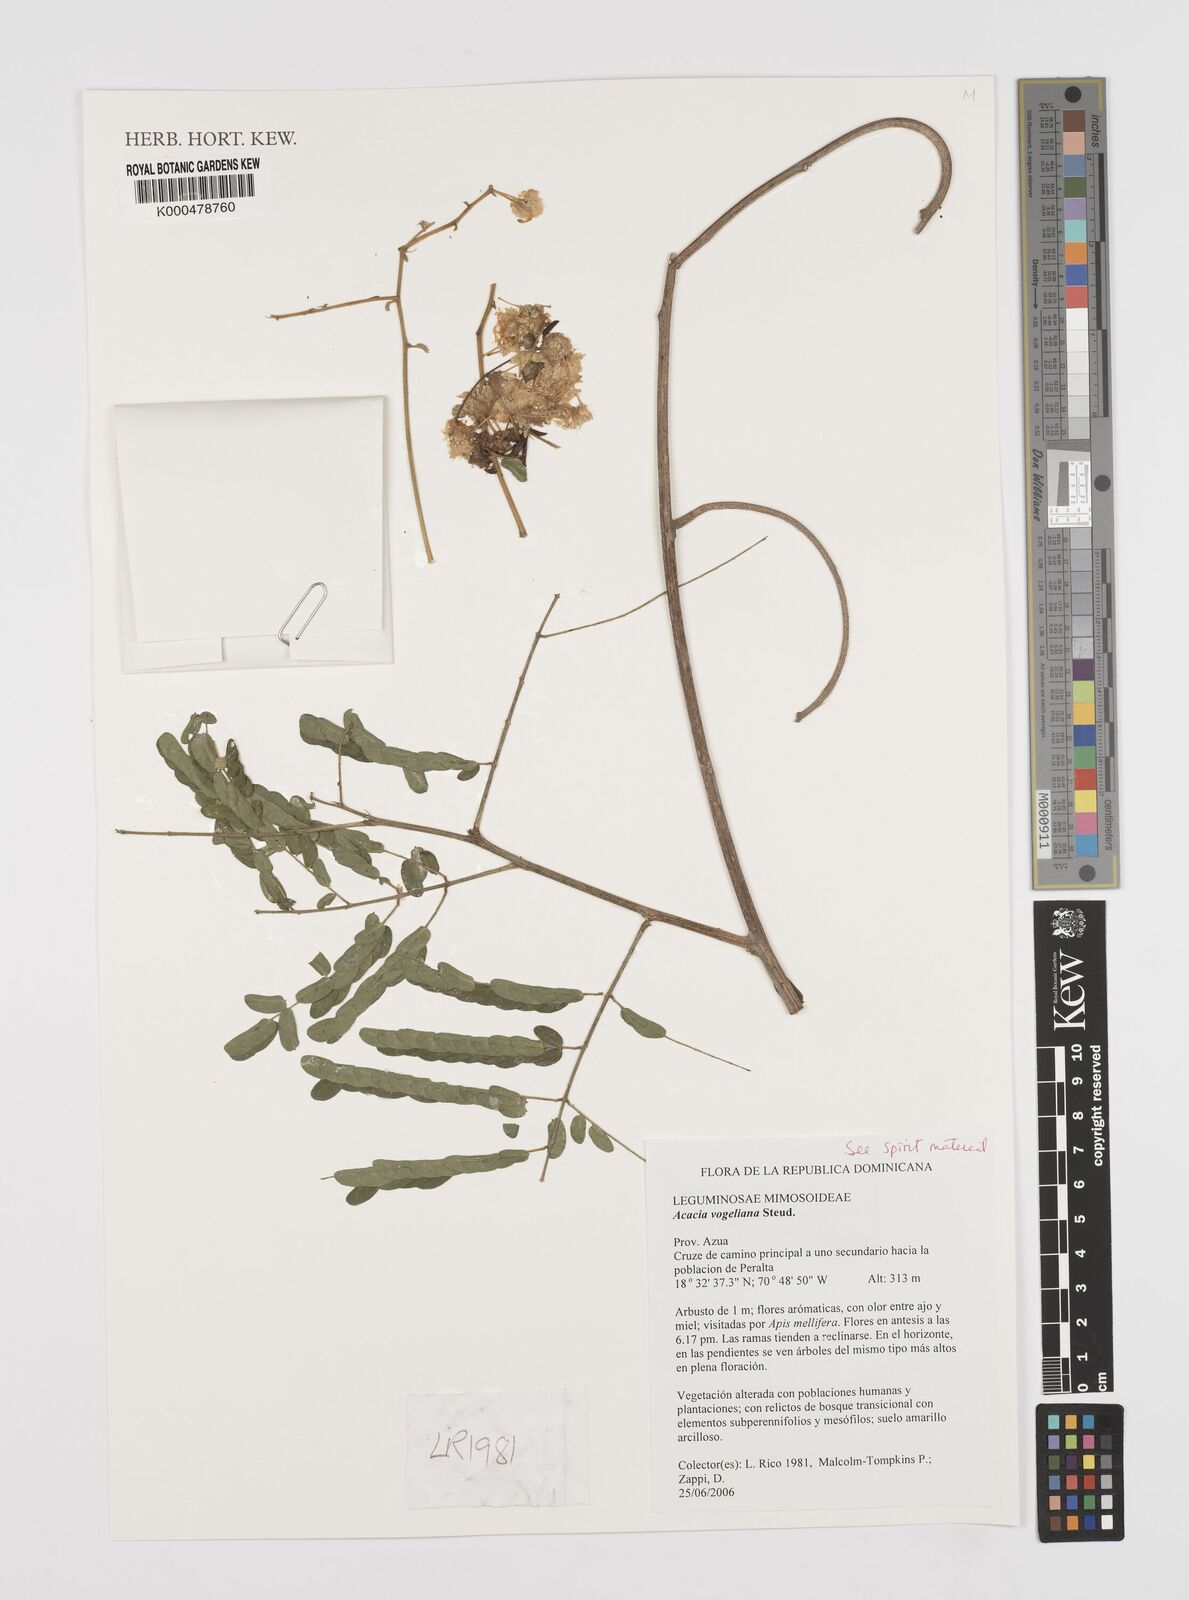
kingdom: Plantae
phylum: Tracheophyta
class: Magnoliopsida
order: Fabales
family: Fabaceae
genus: Parasenegalia
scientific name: Parasenegalia vogeliana
